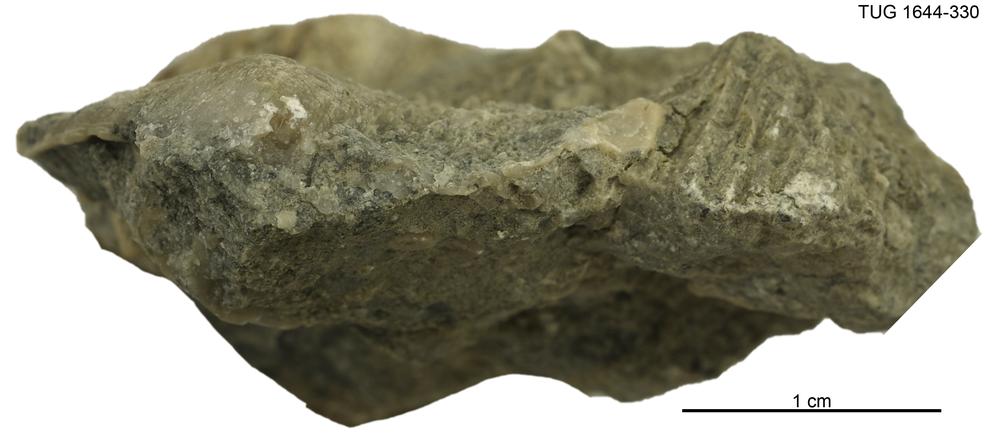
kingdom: Animalia
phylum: Mollusca
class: Monoplacophora
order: Tryblidiida
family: Tryblidiidae
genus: Pilina
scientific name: Pilina
